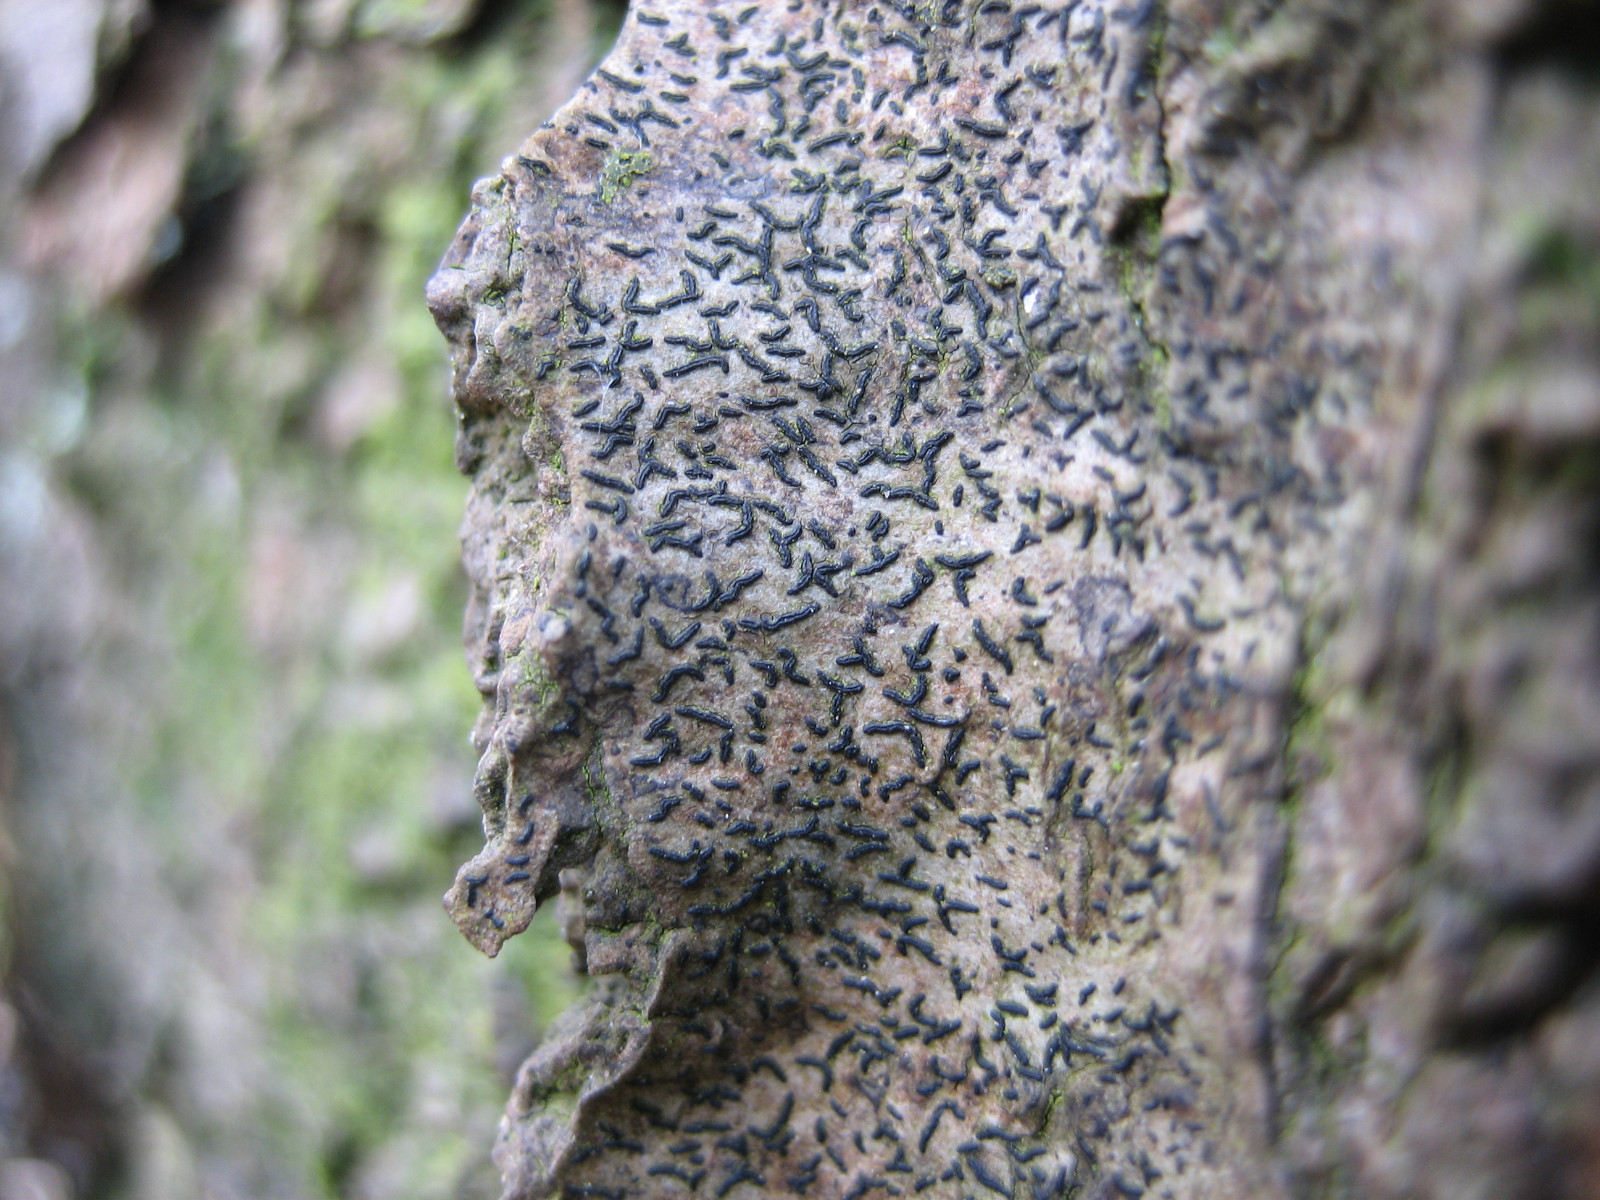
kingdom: Fungi
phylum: Ascomycota
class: Lecanoromycetes
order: Ostropales
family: Graphidaceae
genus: Opegrapha
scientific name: Opegrapha vulgata
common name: oliven-bogstavlav
